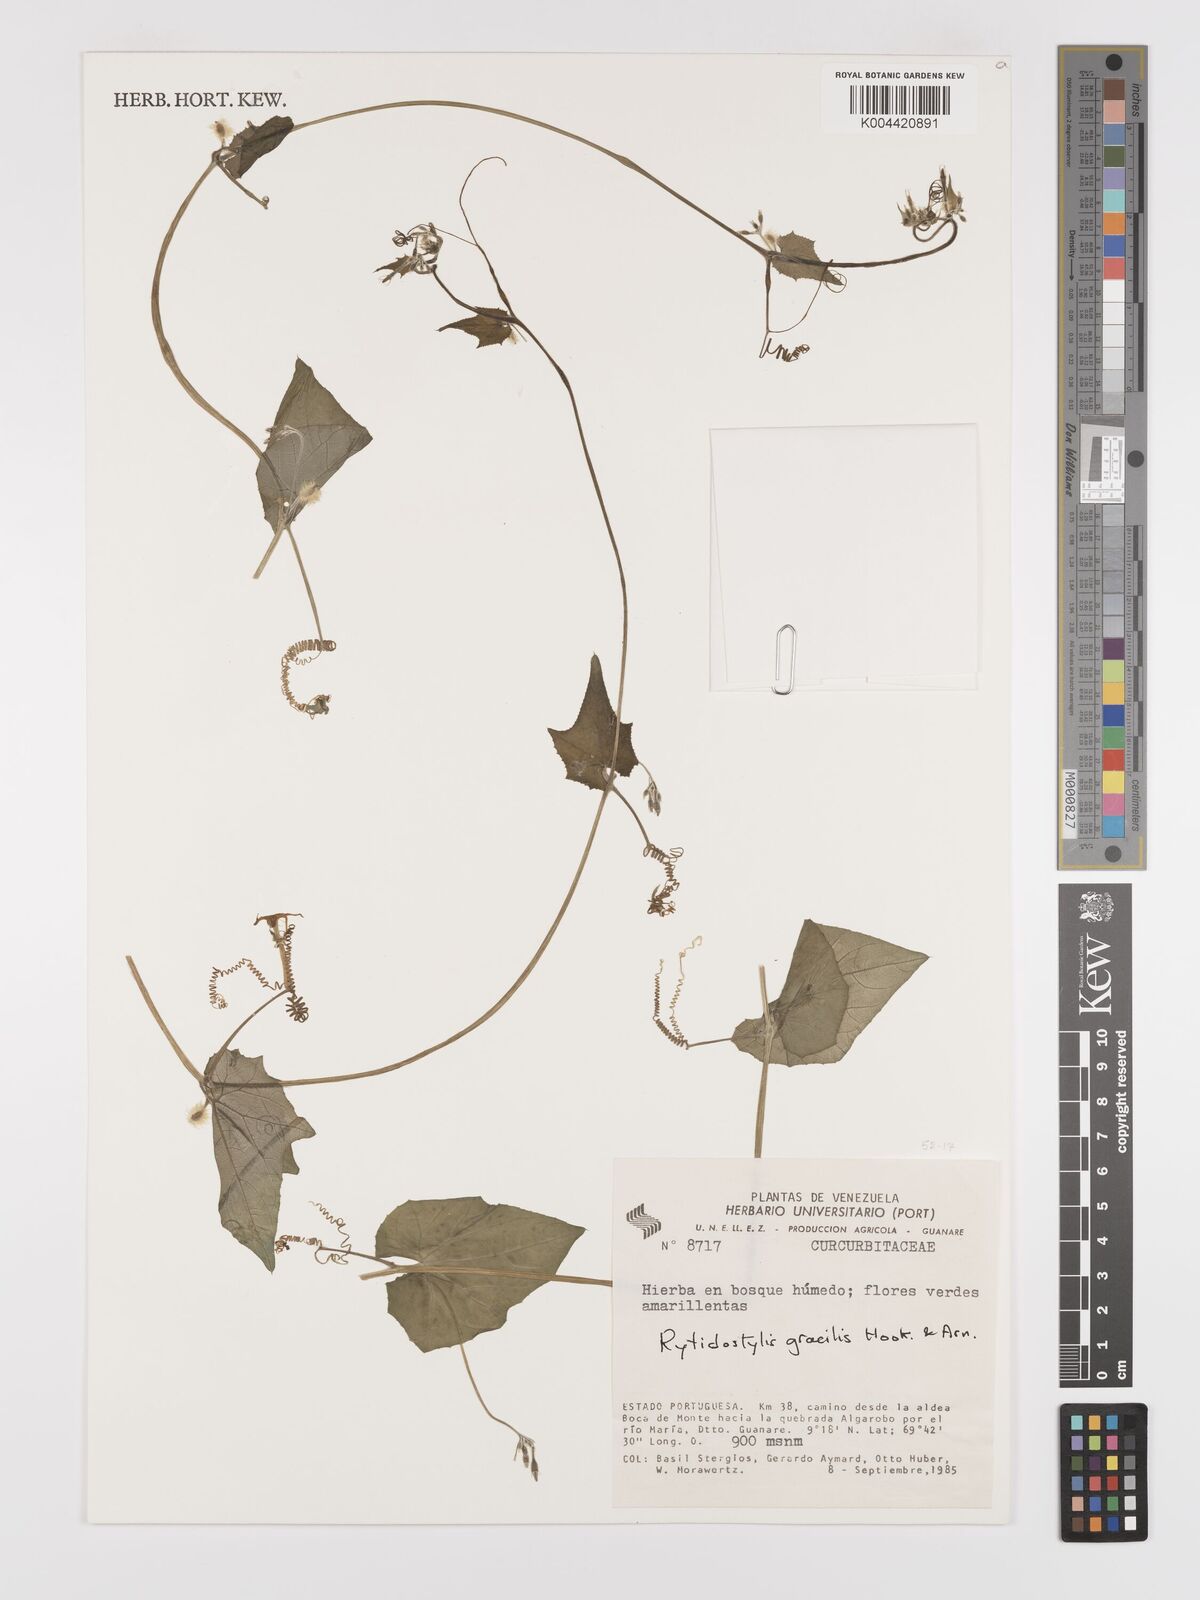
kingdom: Plantae
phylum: Tracheophyta
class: Magnoliopsida
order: Cucurbitales
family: Cucurbitaceae
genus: Cyclanthera
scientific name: Cyclanthera filiformis
